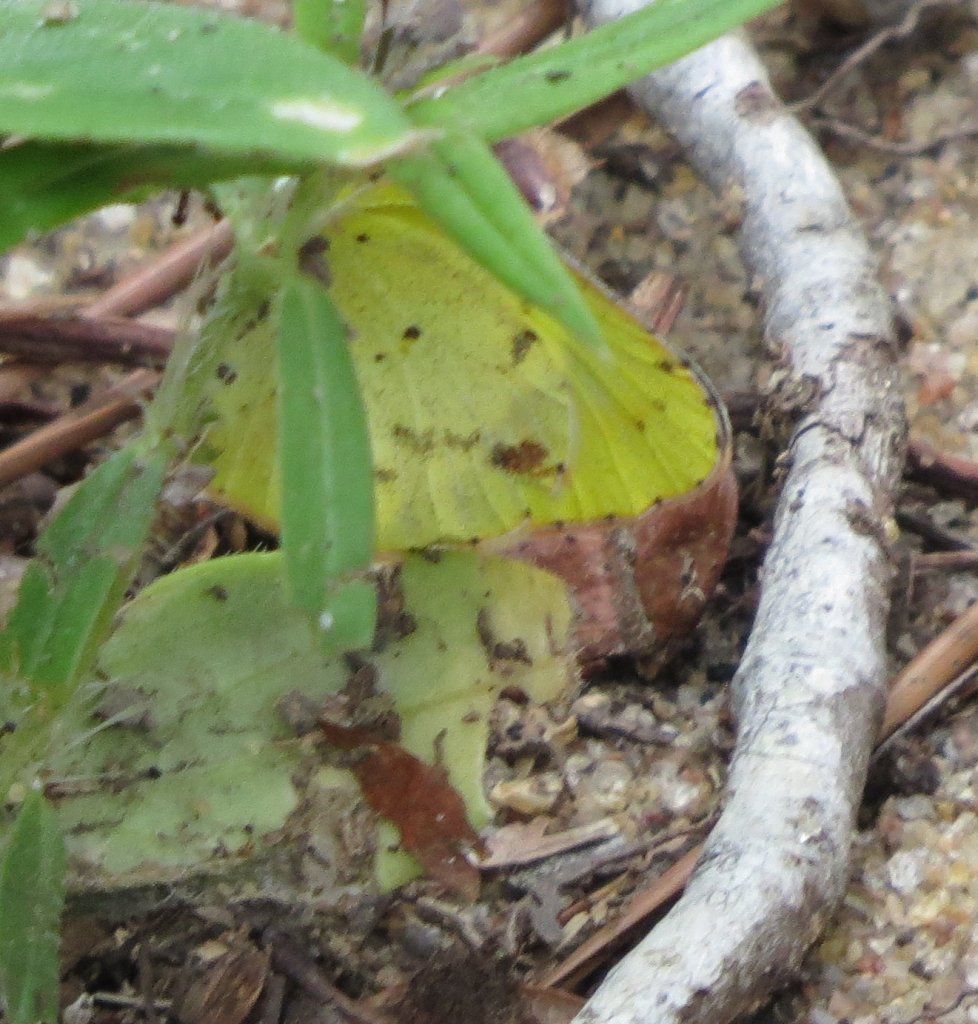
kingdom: Animalia
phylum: Arthropoda
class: Insecta
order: Lepidoptera
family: Pieridae
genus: Pyrisitia
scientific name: Pyrisitia lisa
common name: Little Yellow
